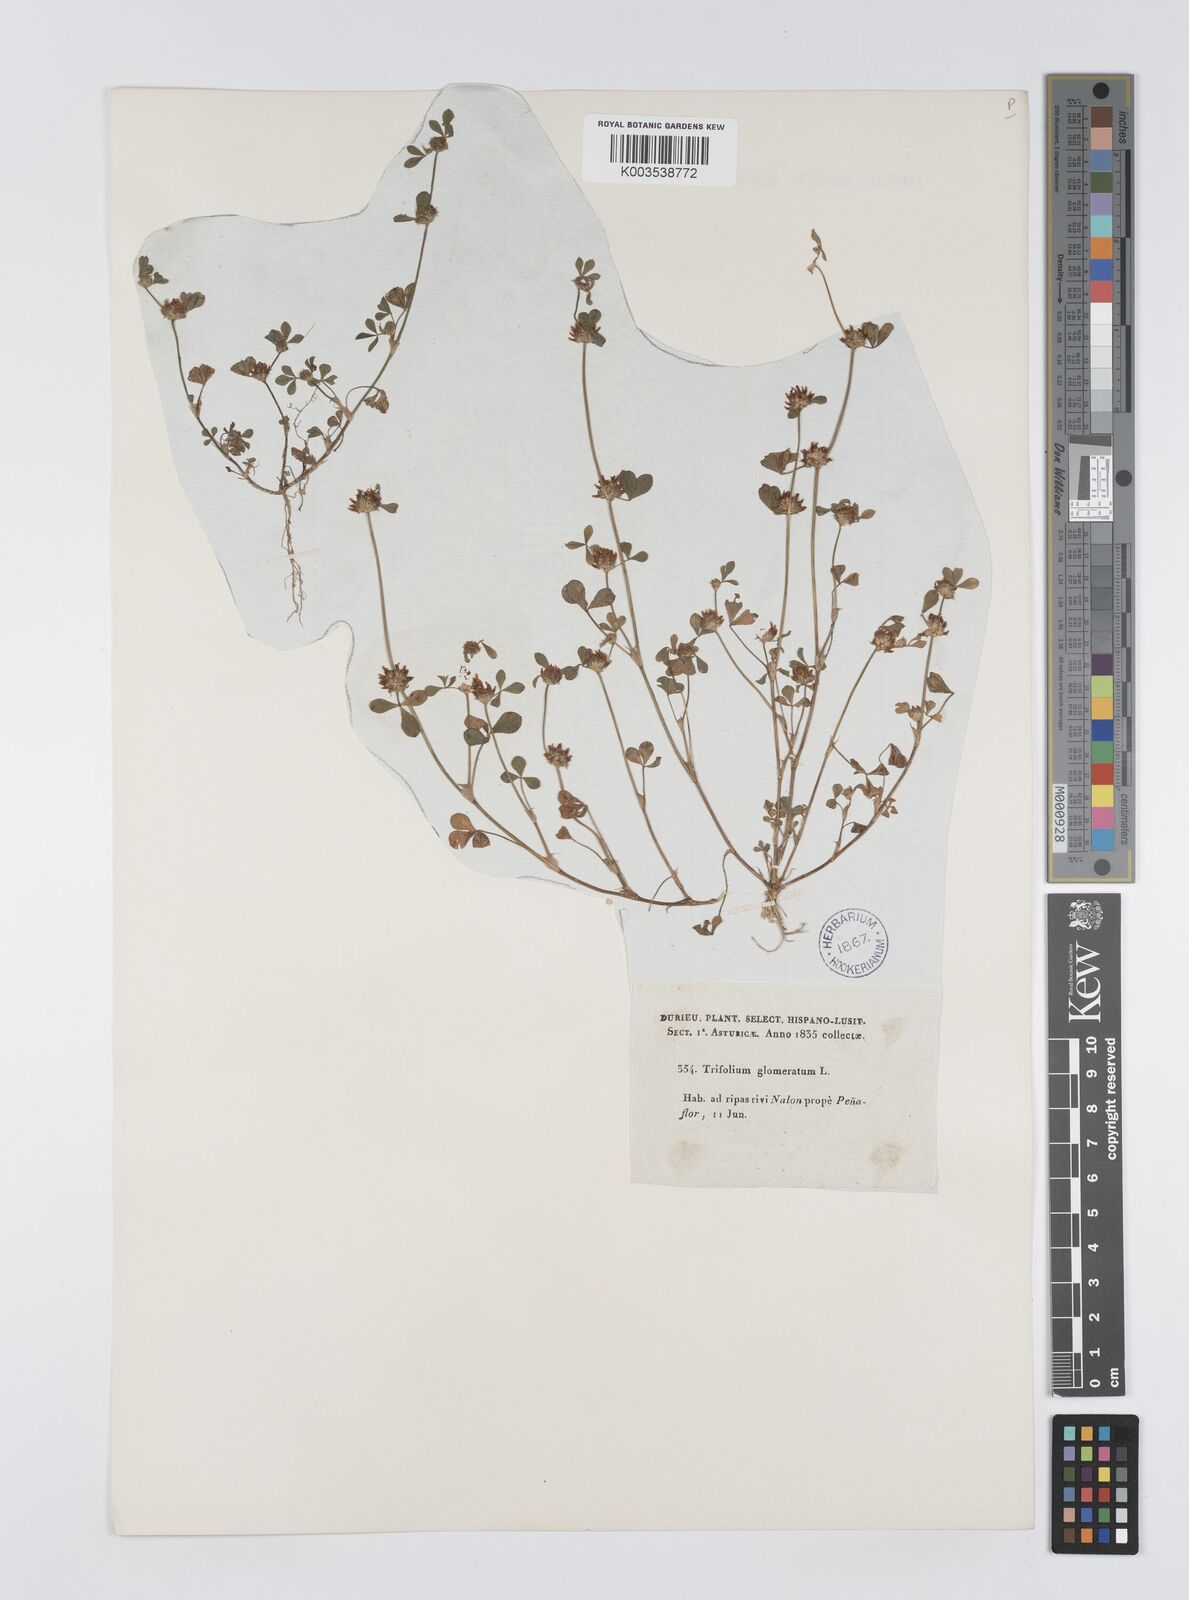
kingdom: Plantae
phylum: Tracheophyta
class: Magnoliopsida
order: Fabales
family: Fabaceae
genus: Trifolium
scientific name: Trifolium glomeratum
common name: Clustered clover
